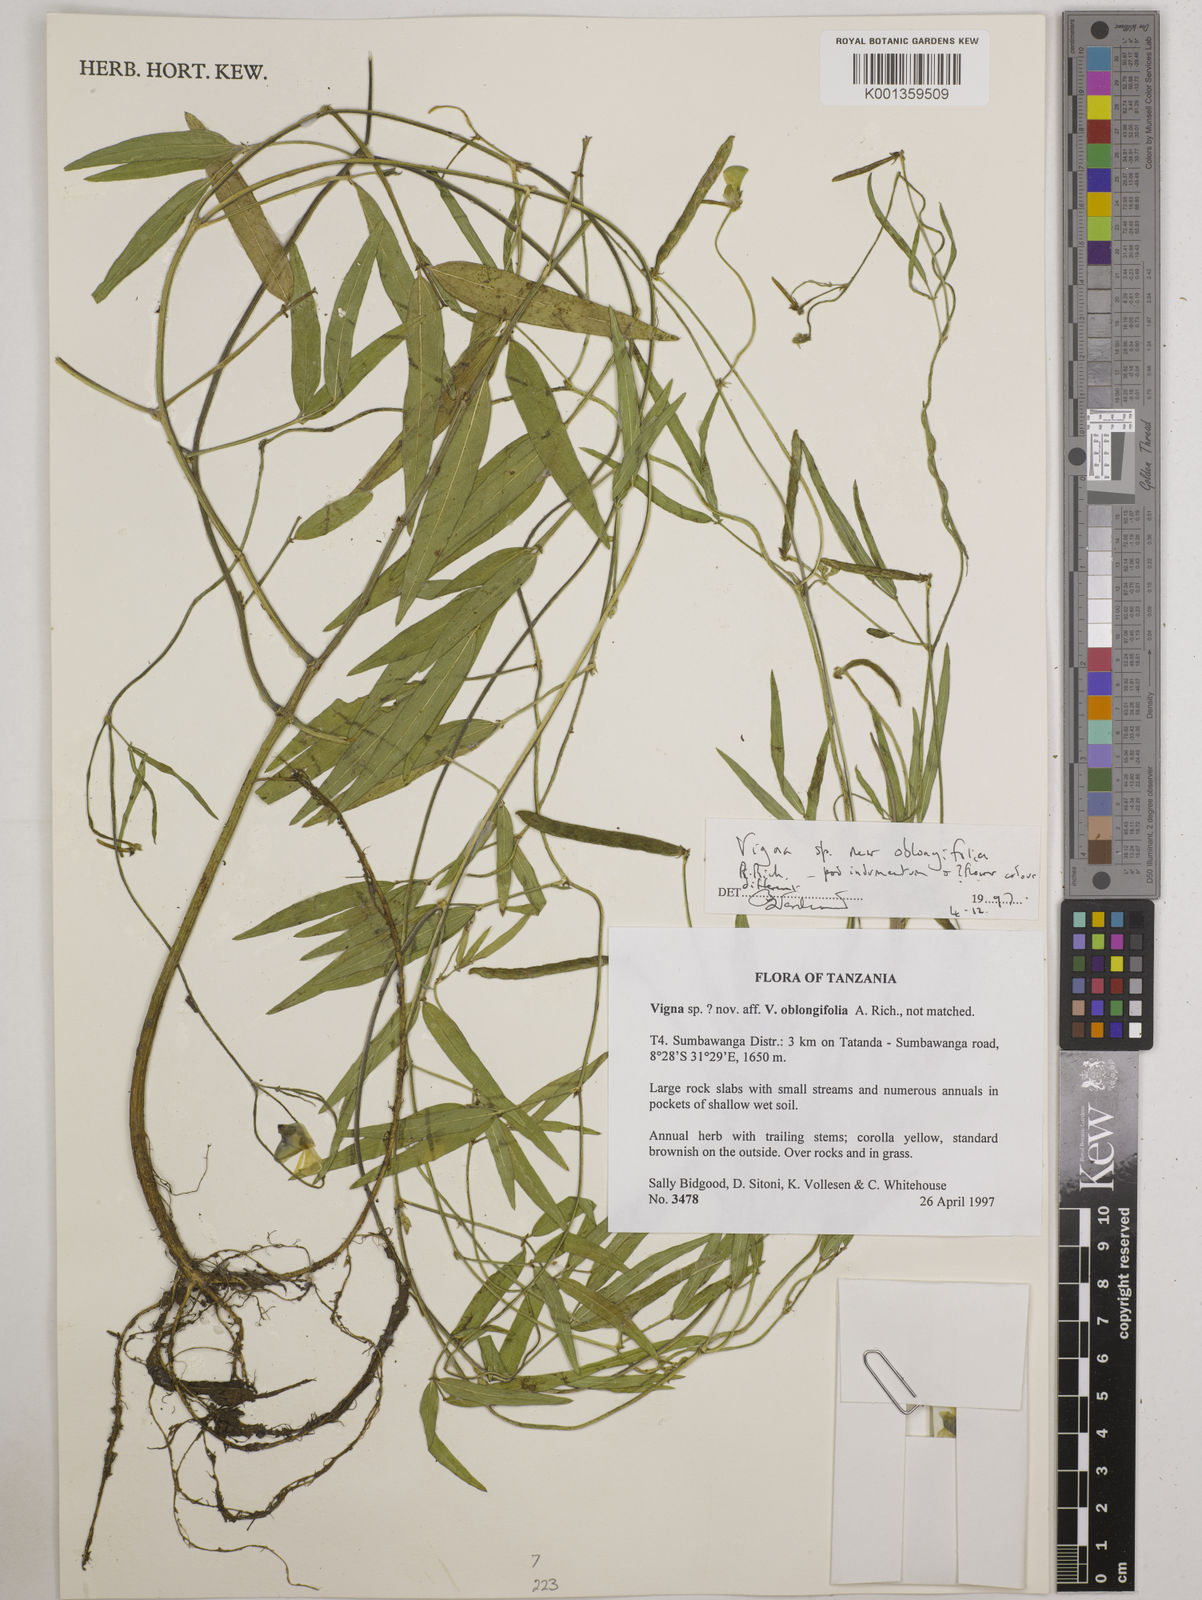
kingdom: Plantae
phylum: Tracheophyta
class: Magnoliopsida
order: Fabales
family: Fabaceae
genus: Vigna
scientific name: Vigna oblongifolia
